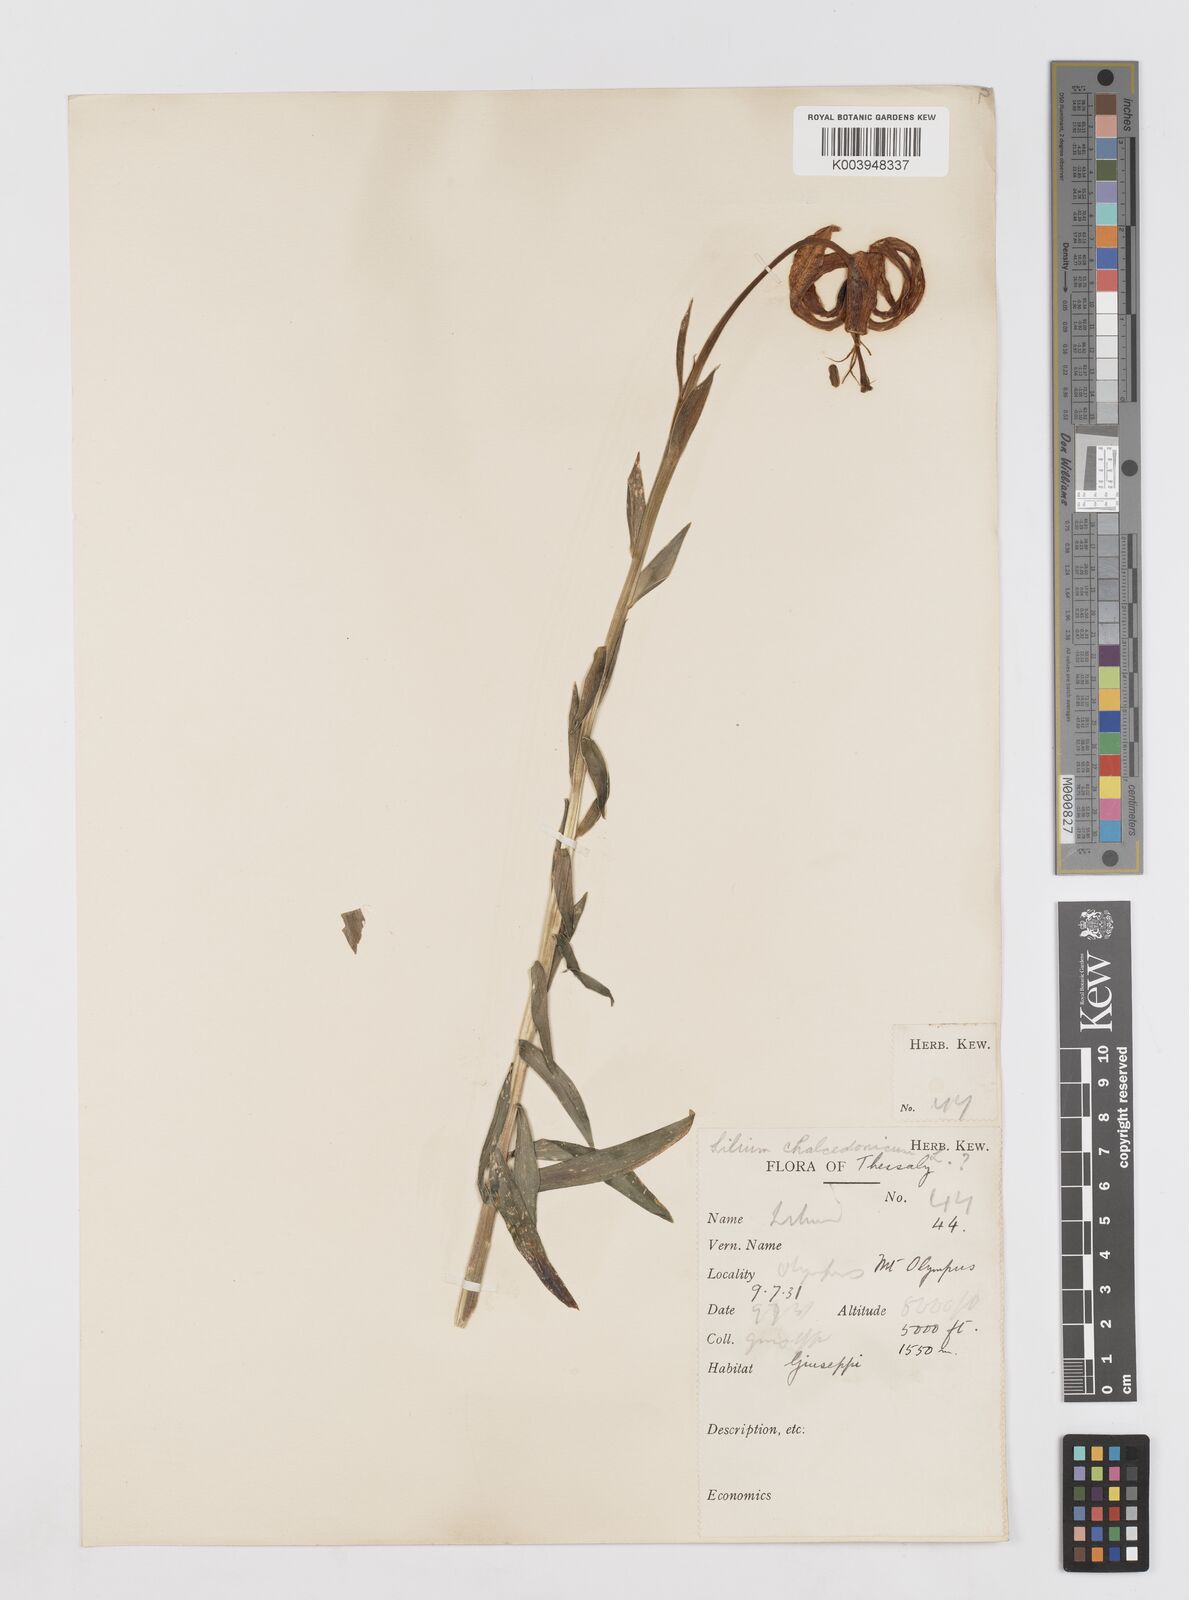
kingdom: Plantae
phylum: Tracheophyta
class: Liliopsida
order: Liliales
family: Liliaceae
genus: Lilium
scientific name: Lilium chalcedonicum
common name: Red martagon of constantinople
